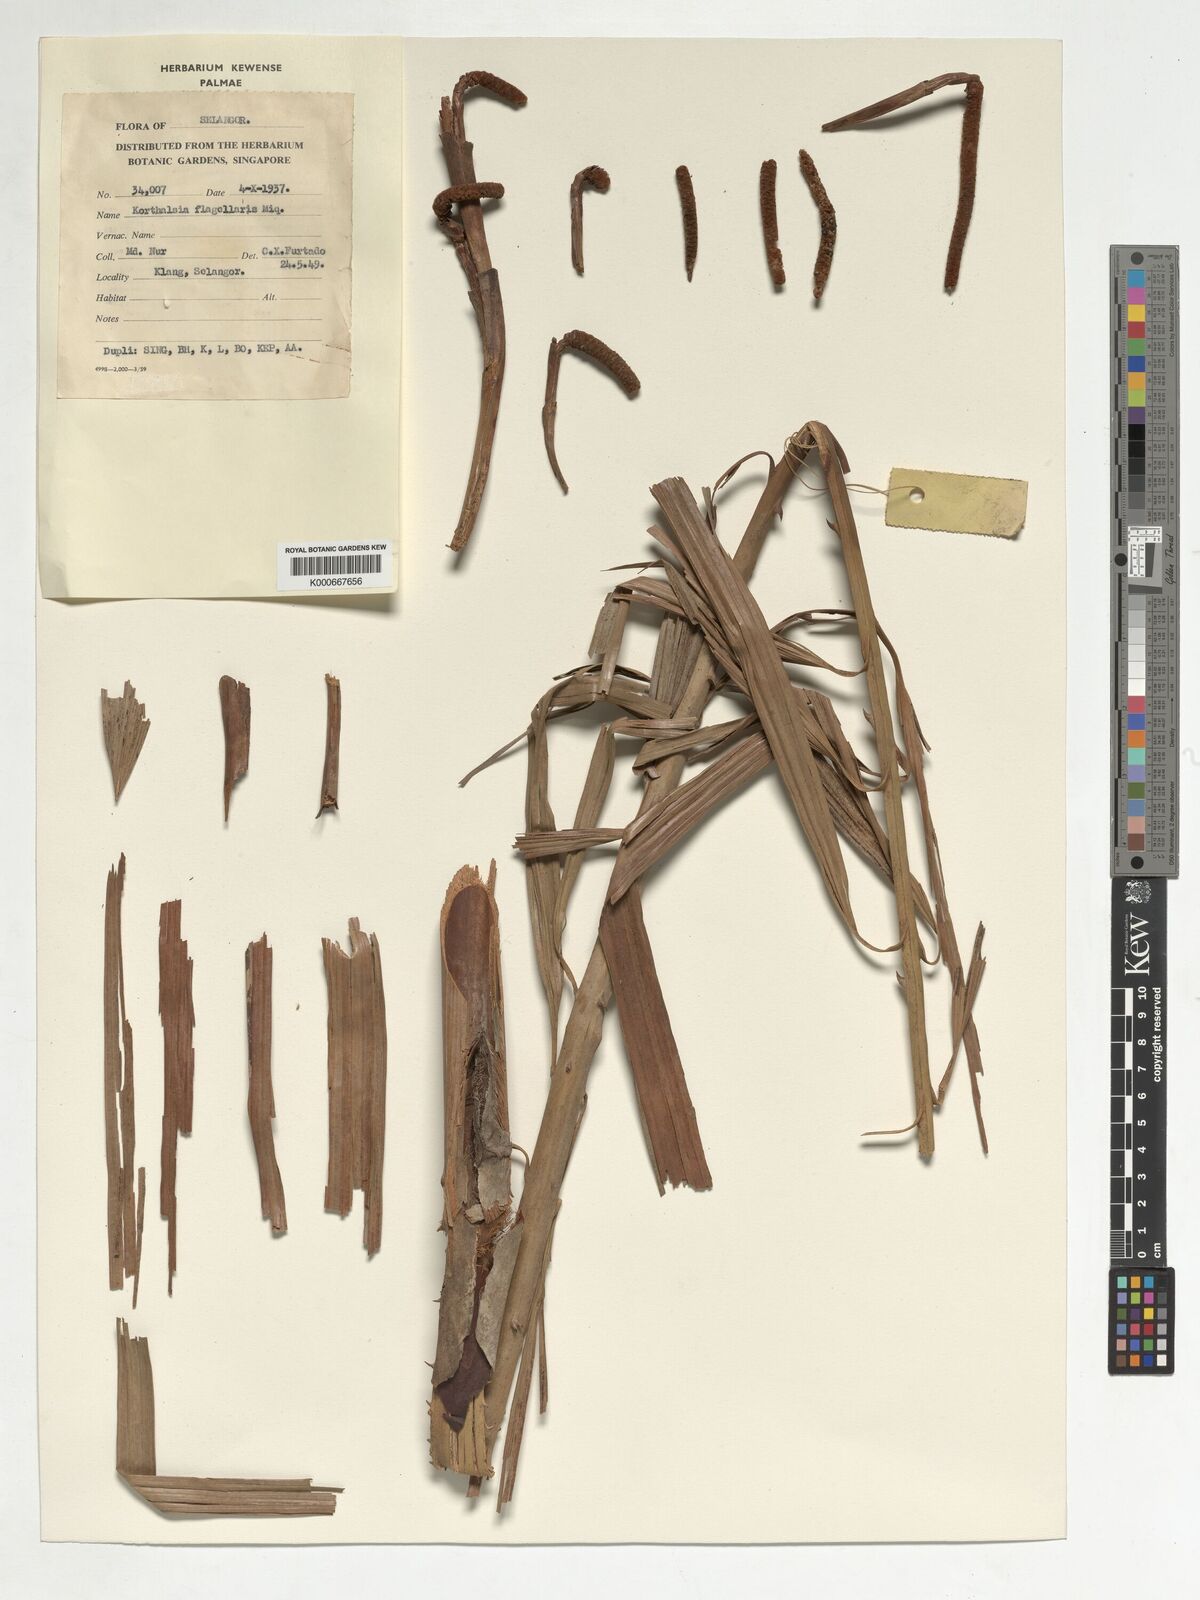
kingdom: Plantae
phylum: Tracheophyta
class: Liliopsida
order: Arecales
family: Arecaceae
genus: Korthalsia
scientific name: Korthalsia flagellaris
